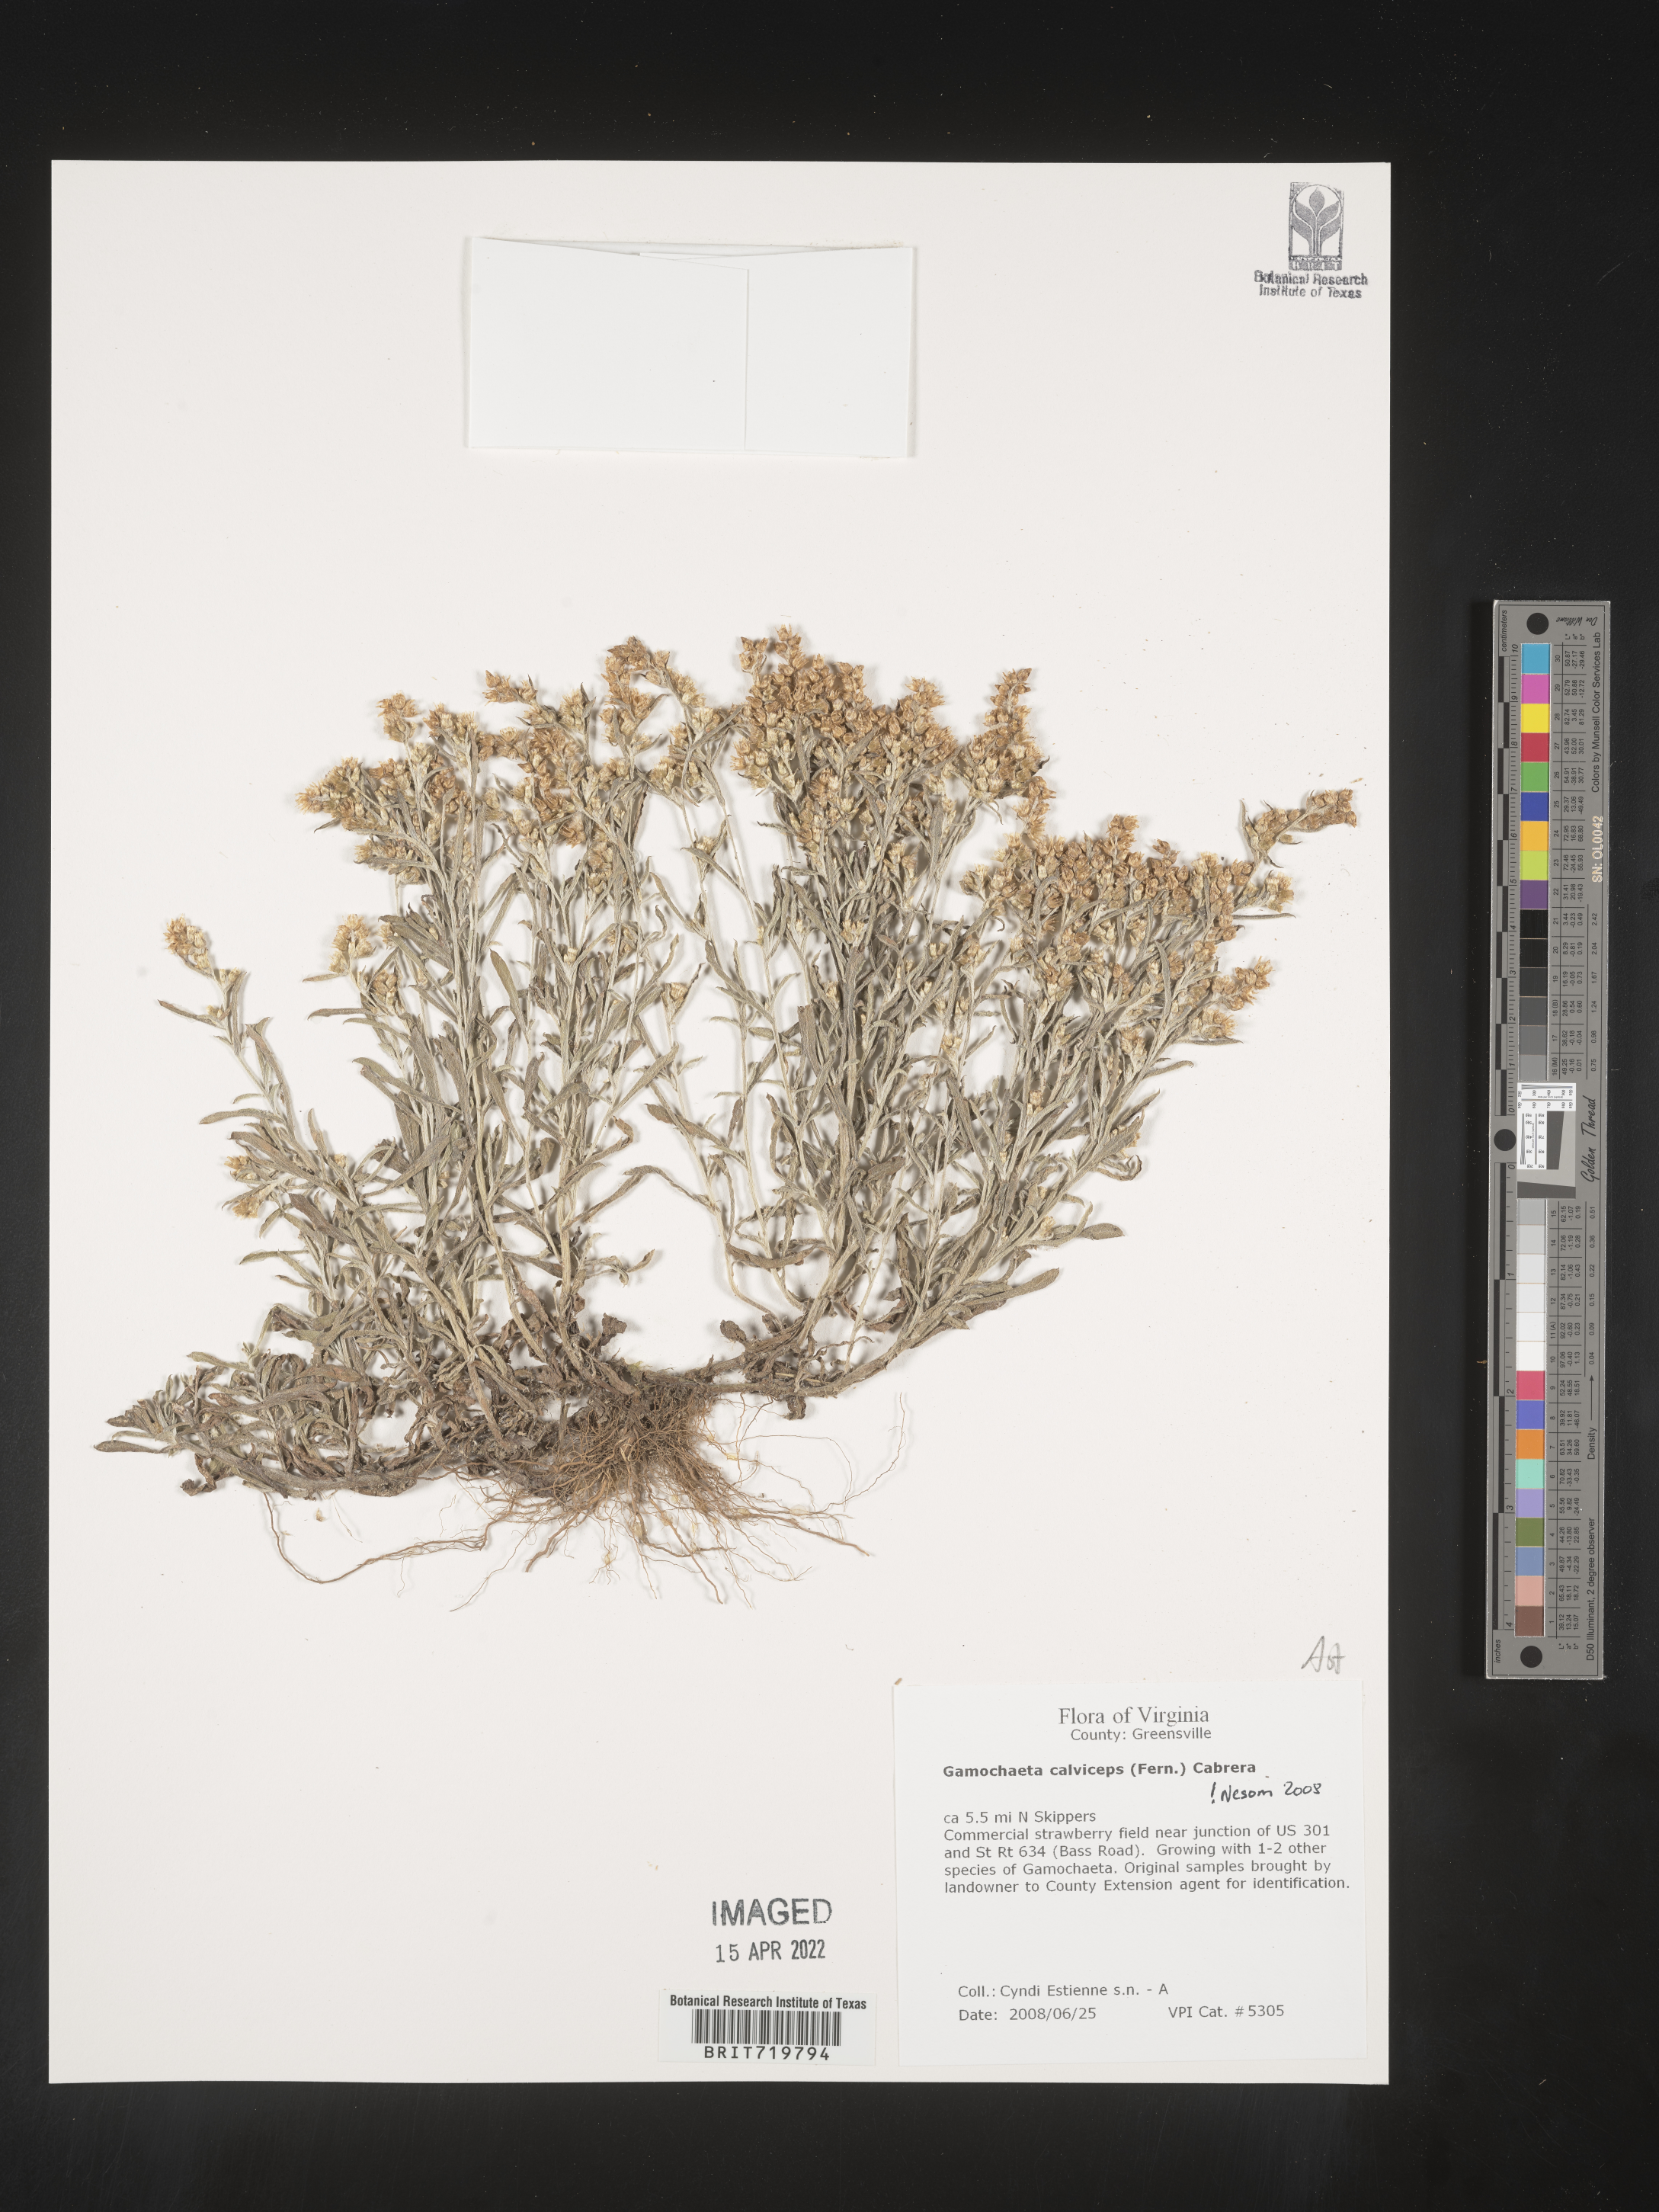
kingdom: Plantae
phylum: Tracheophyta
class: Magnoliopsida
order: Asterales
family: Asteraceae
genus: Gamochaeta
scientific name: Gamochaeta calviceps
